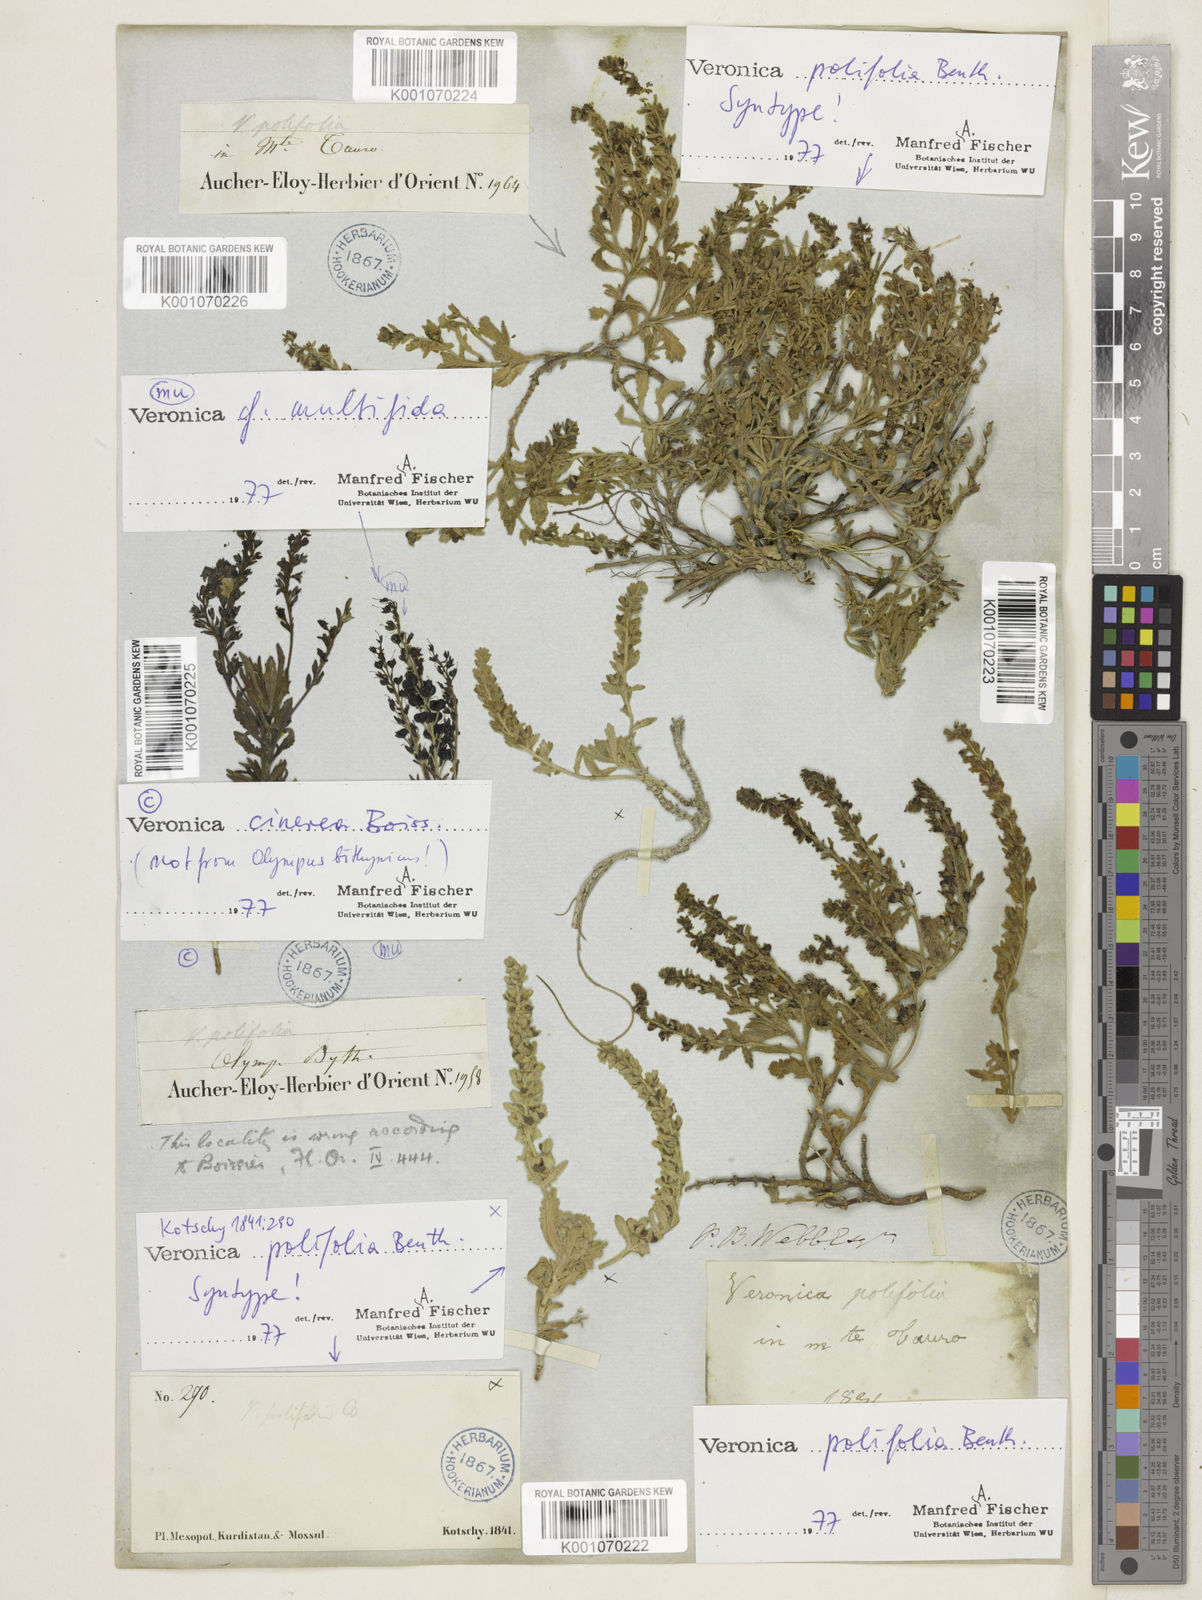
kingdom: Plantae
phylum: Tracheophyta
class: Magnoliopsida
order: Lamiales
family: Plantaginaceae
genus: Veronica
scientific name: Veronica polifolia
